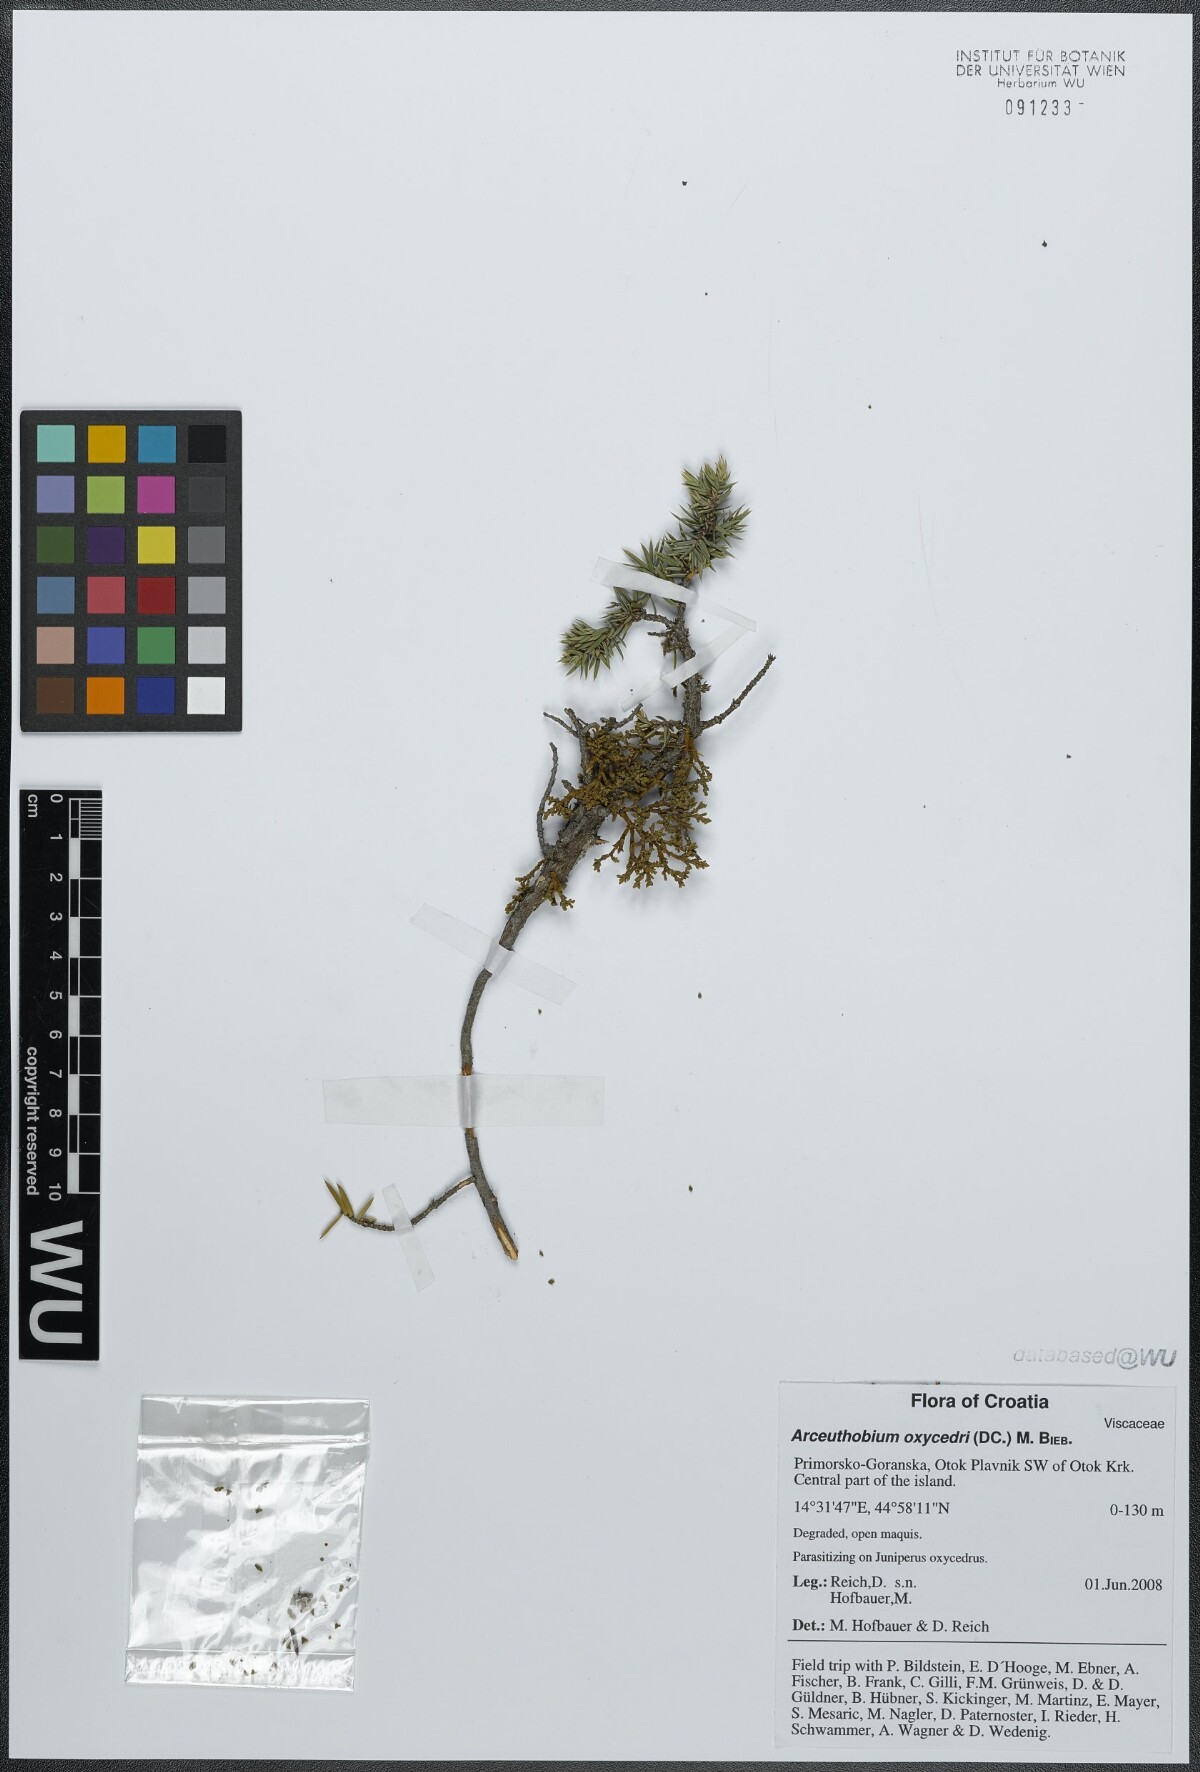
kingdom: Plantae
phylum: Tracheophyta
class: Magnoliopsida
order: Santalales
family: Viscaceae
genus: Arceuthobium
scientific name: Arceuthobium oxycedri
